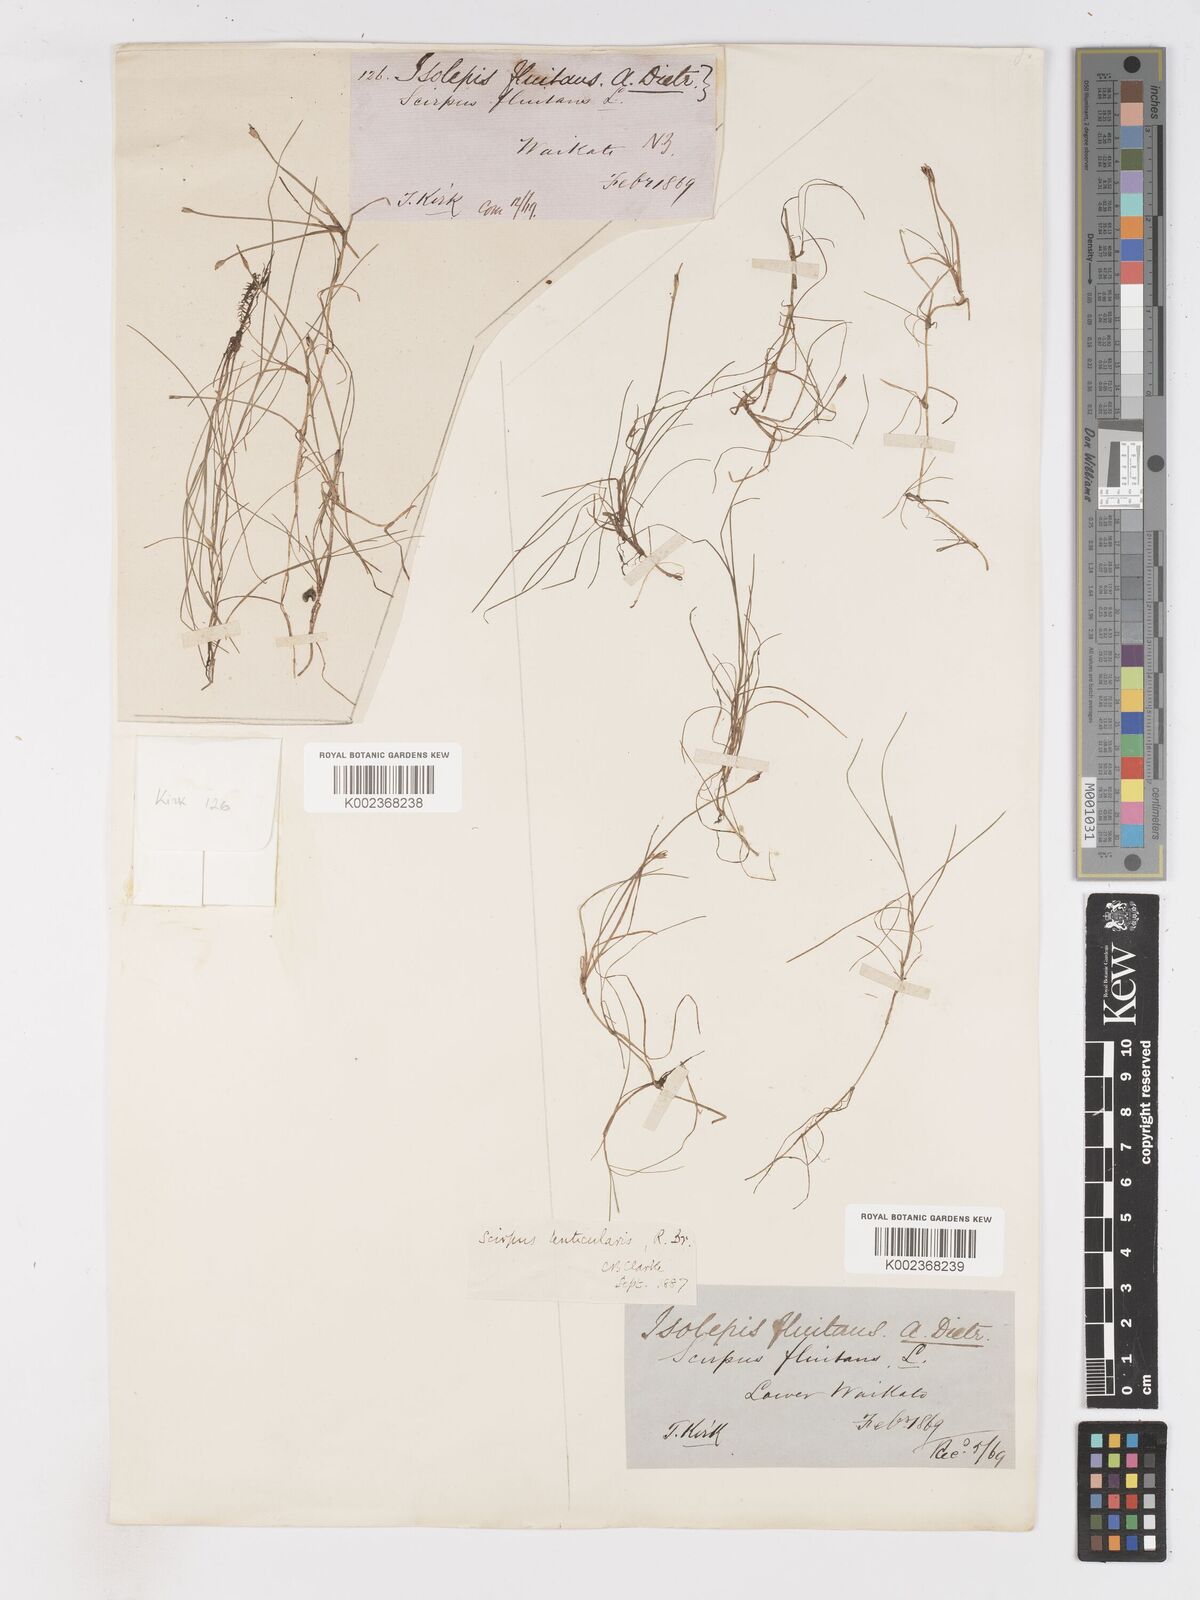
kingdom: Plantae
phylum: Tracheophyta
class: Liliopsida
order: Poales
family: Cyperaceae
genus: Isolepis
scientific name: Isolepis fluitans
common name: Floating club-rush
